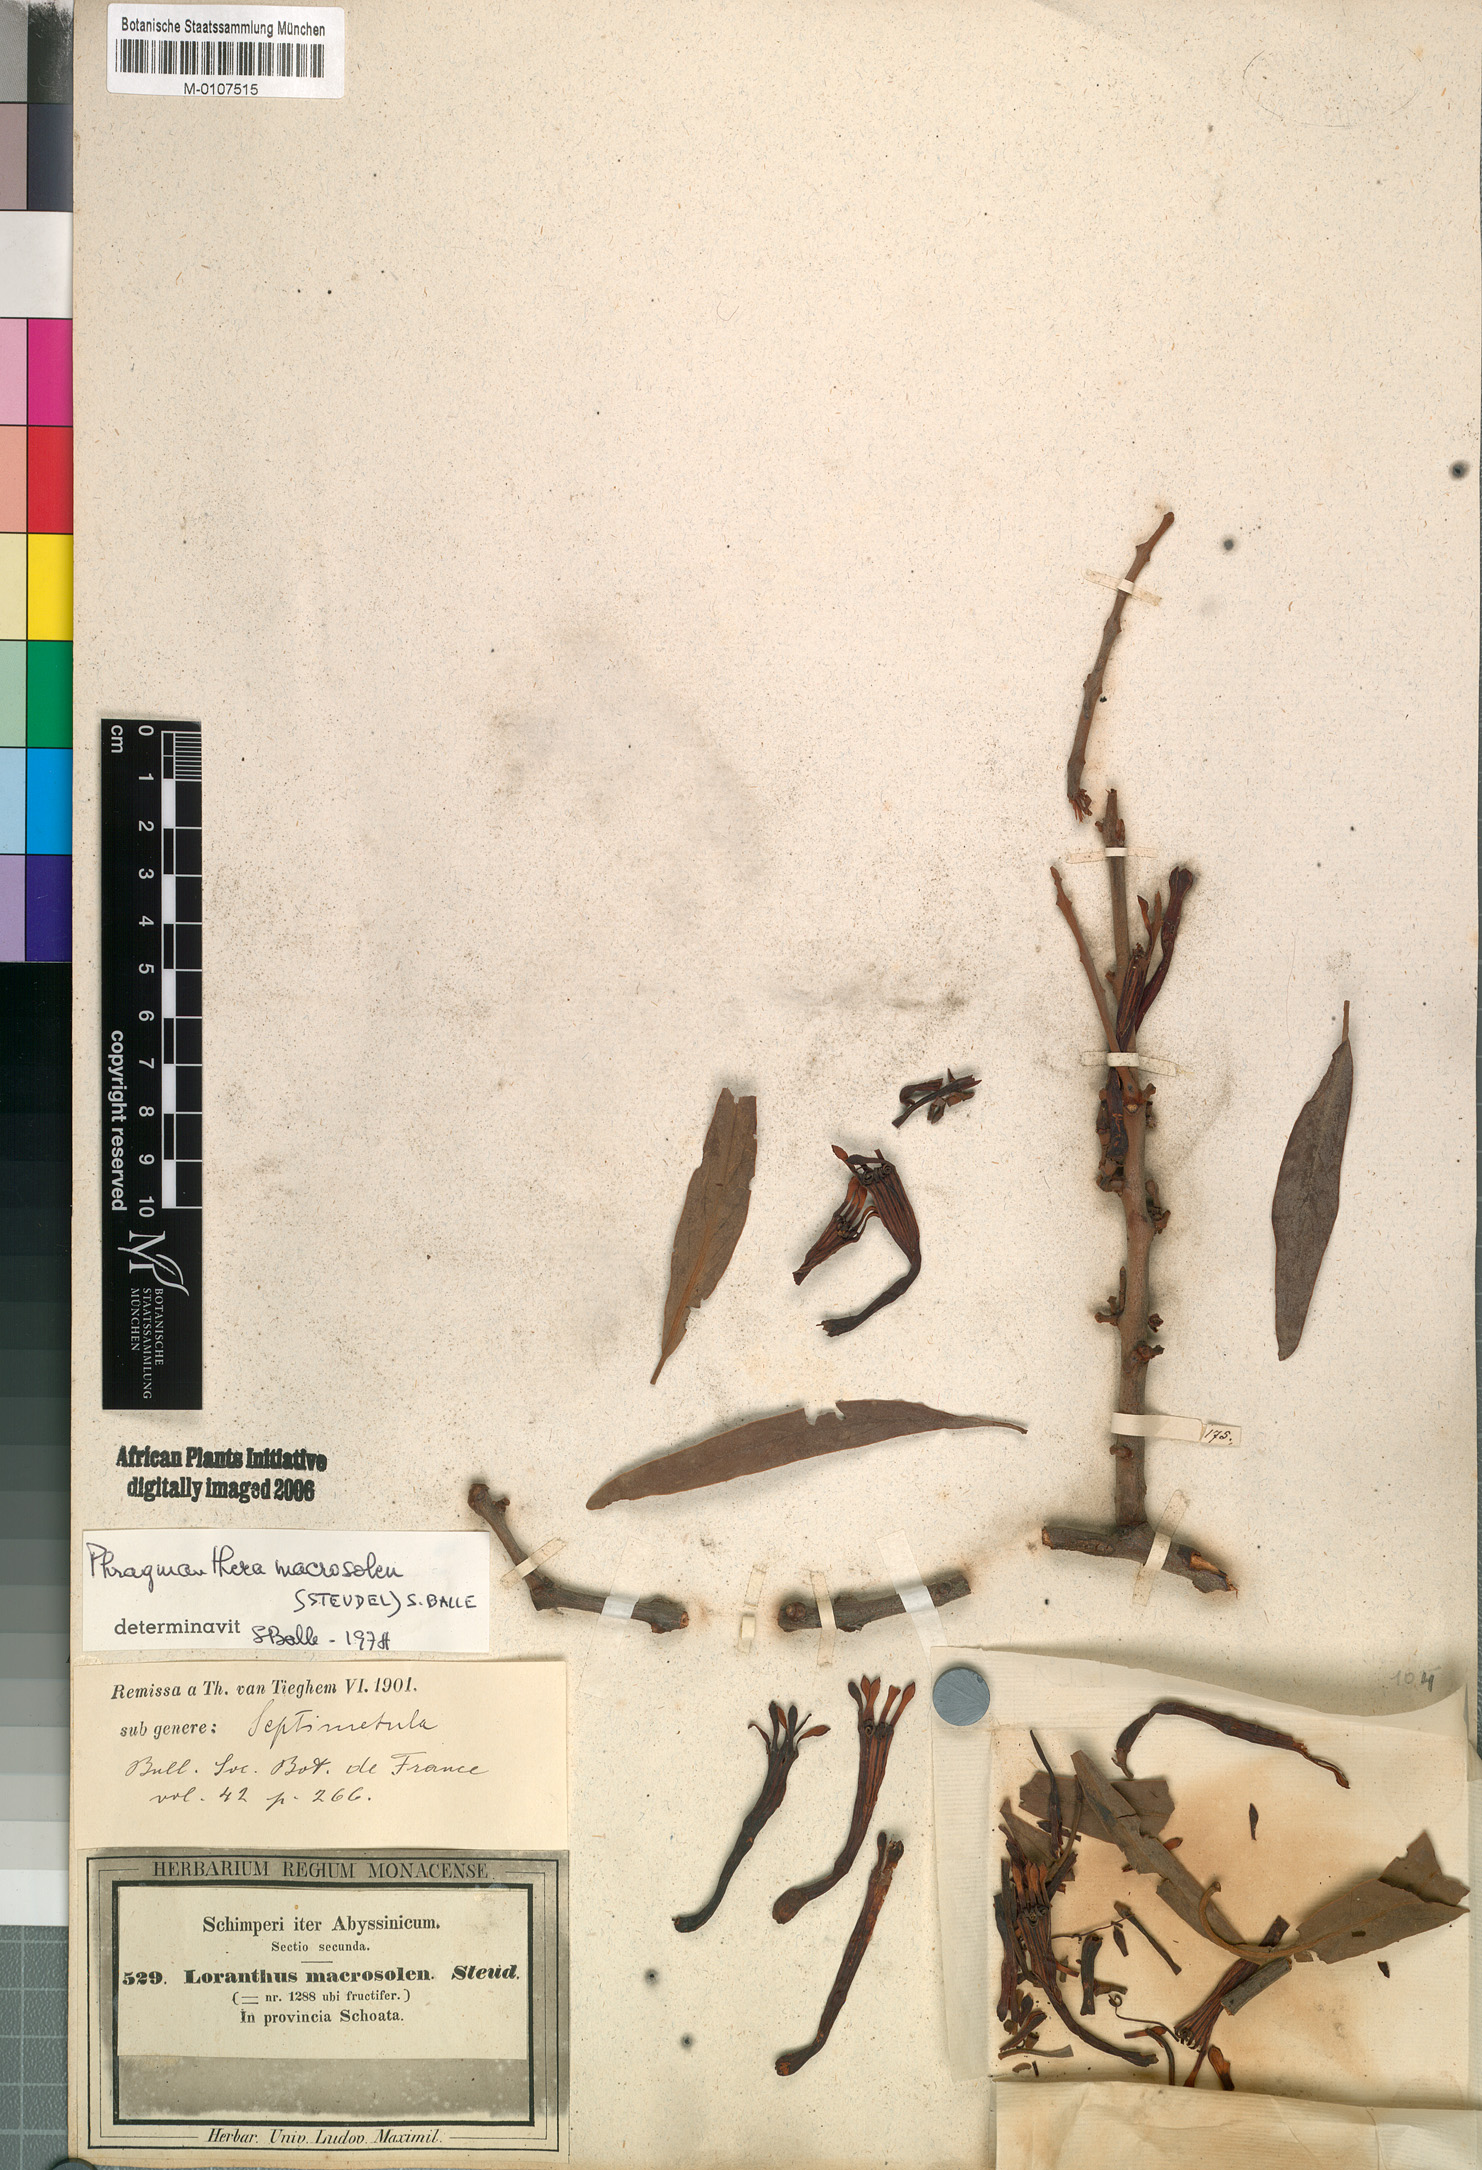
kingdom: Plantae
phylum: Tracheophyta
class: Magnoliopsida
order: Santalales
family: Loranthaceae
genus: Phragmanthera
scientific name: Phragmanthera macrosolen
